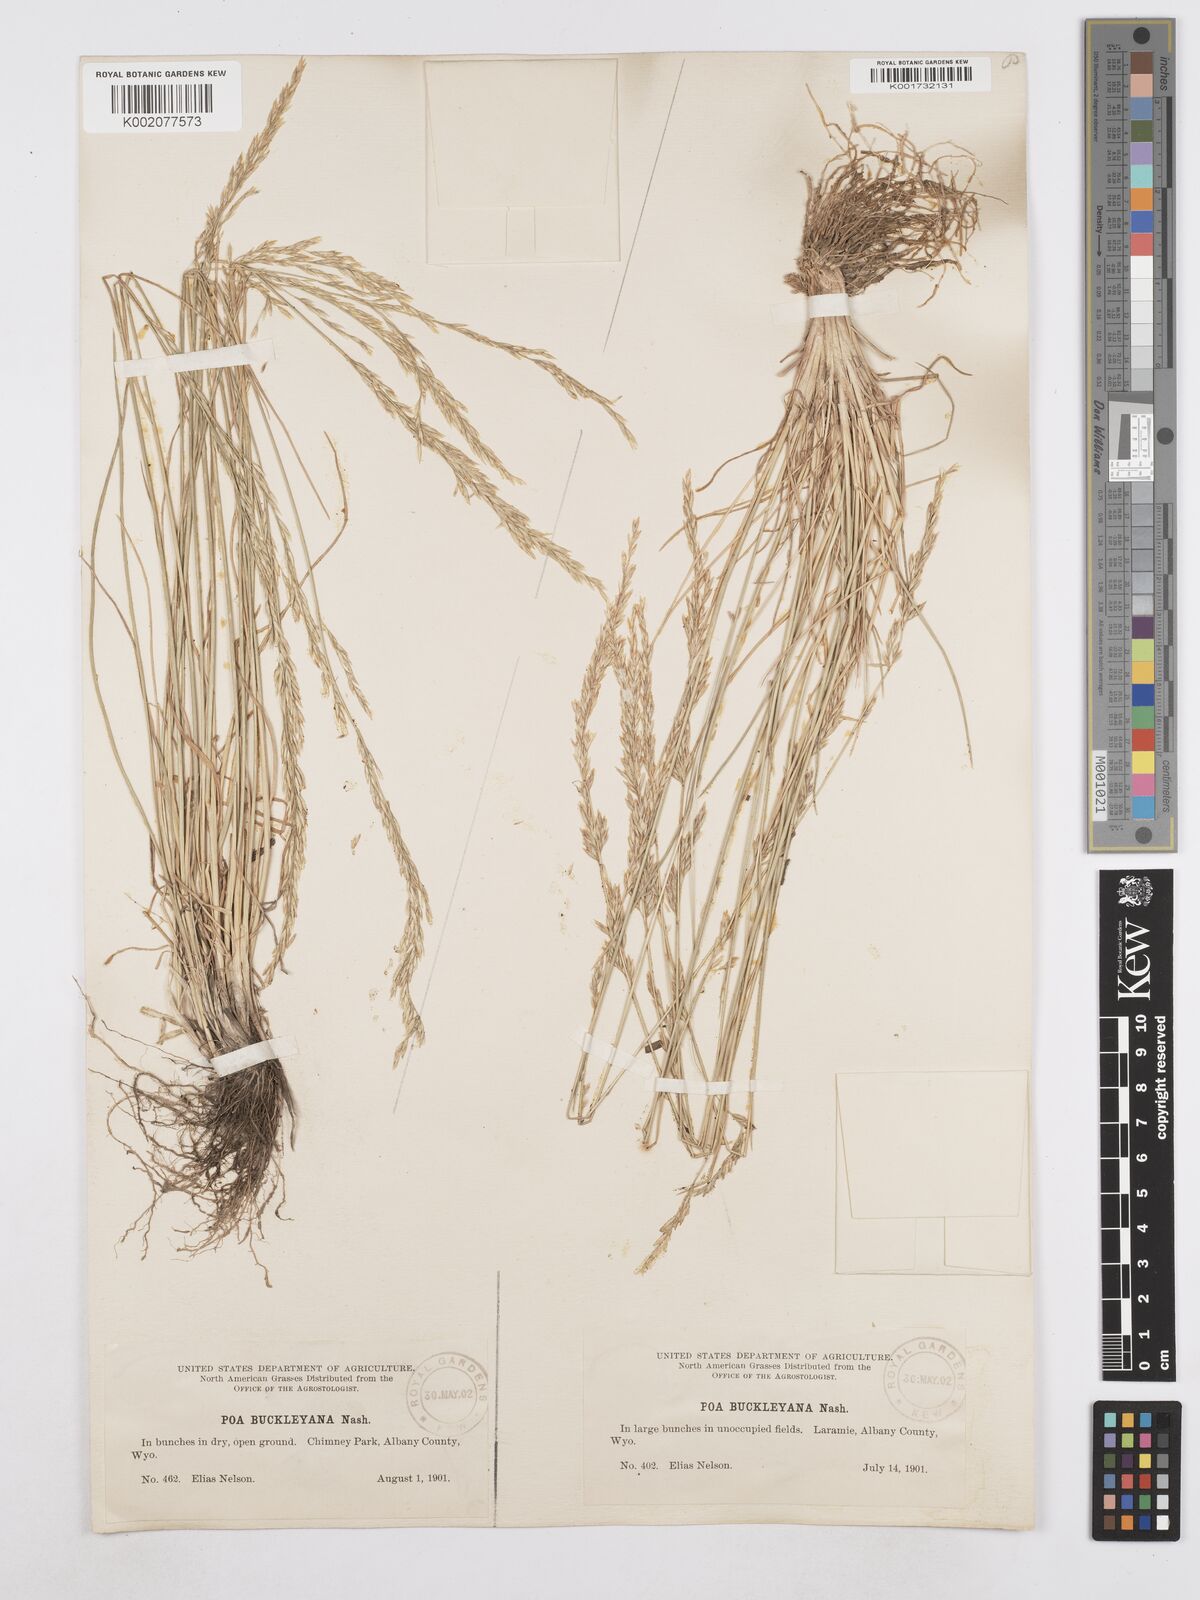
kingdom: Plantae
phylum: Tracheophyta
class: Liliopsida
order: Poales
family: Poaceae
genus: Poa
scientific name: Poa secunda
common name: Sandberg bluegrass
